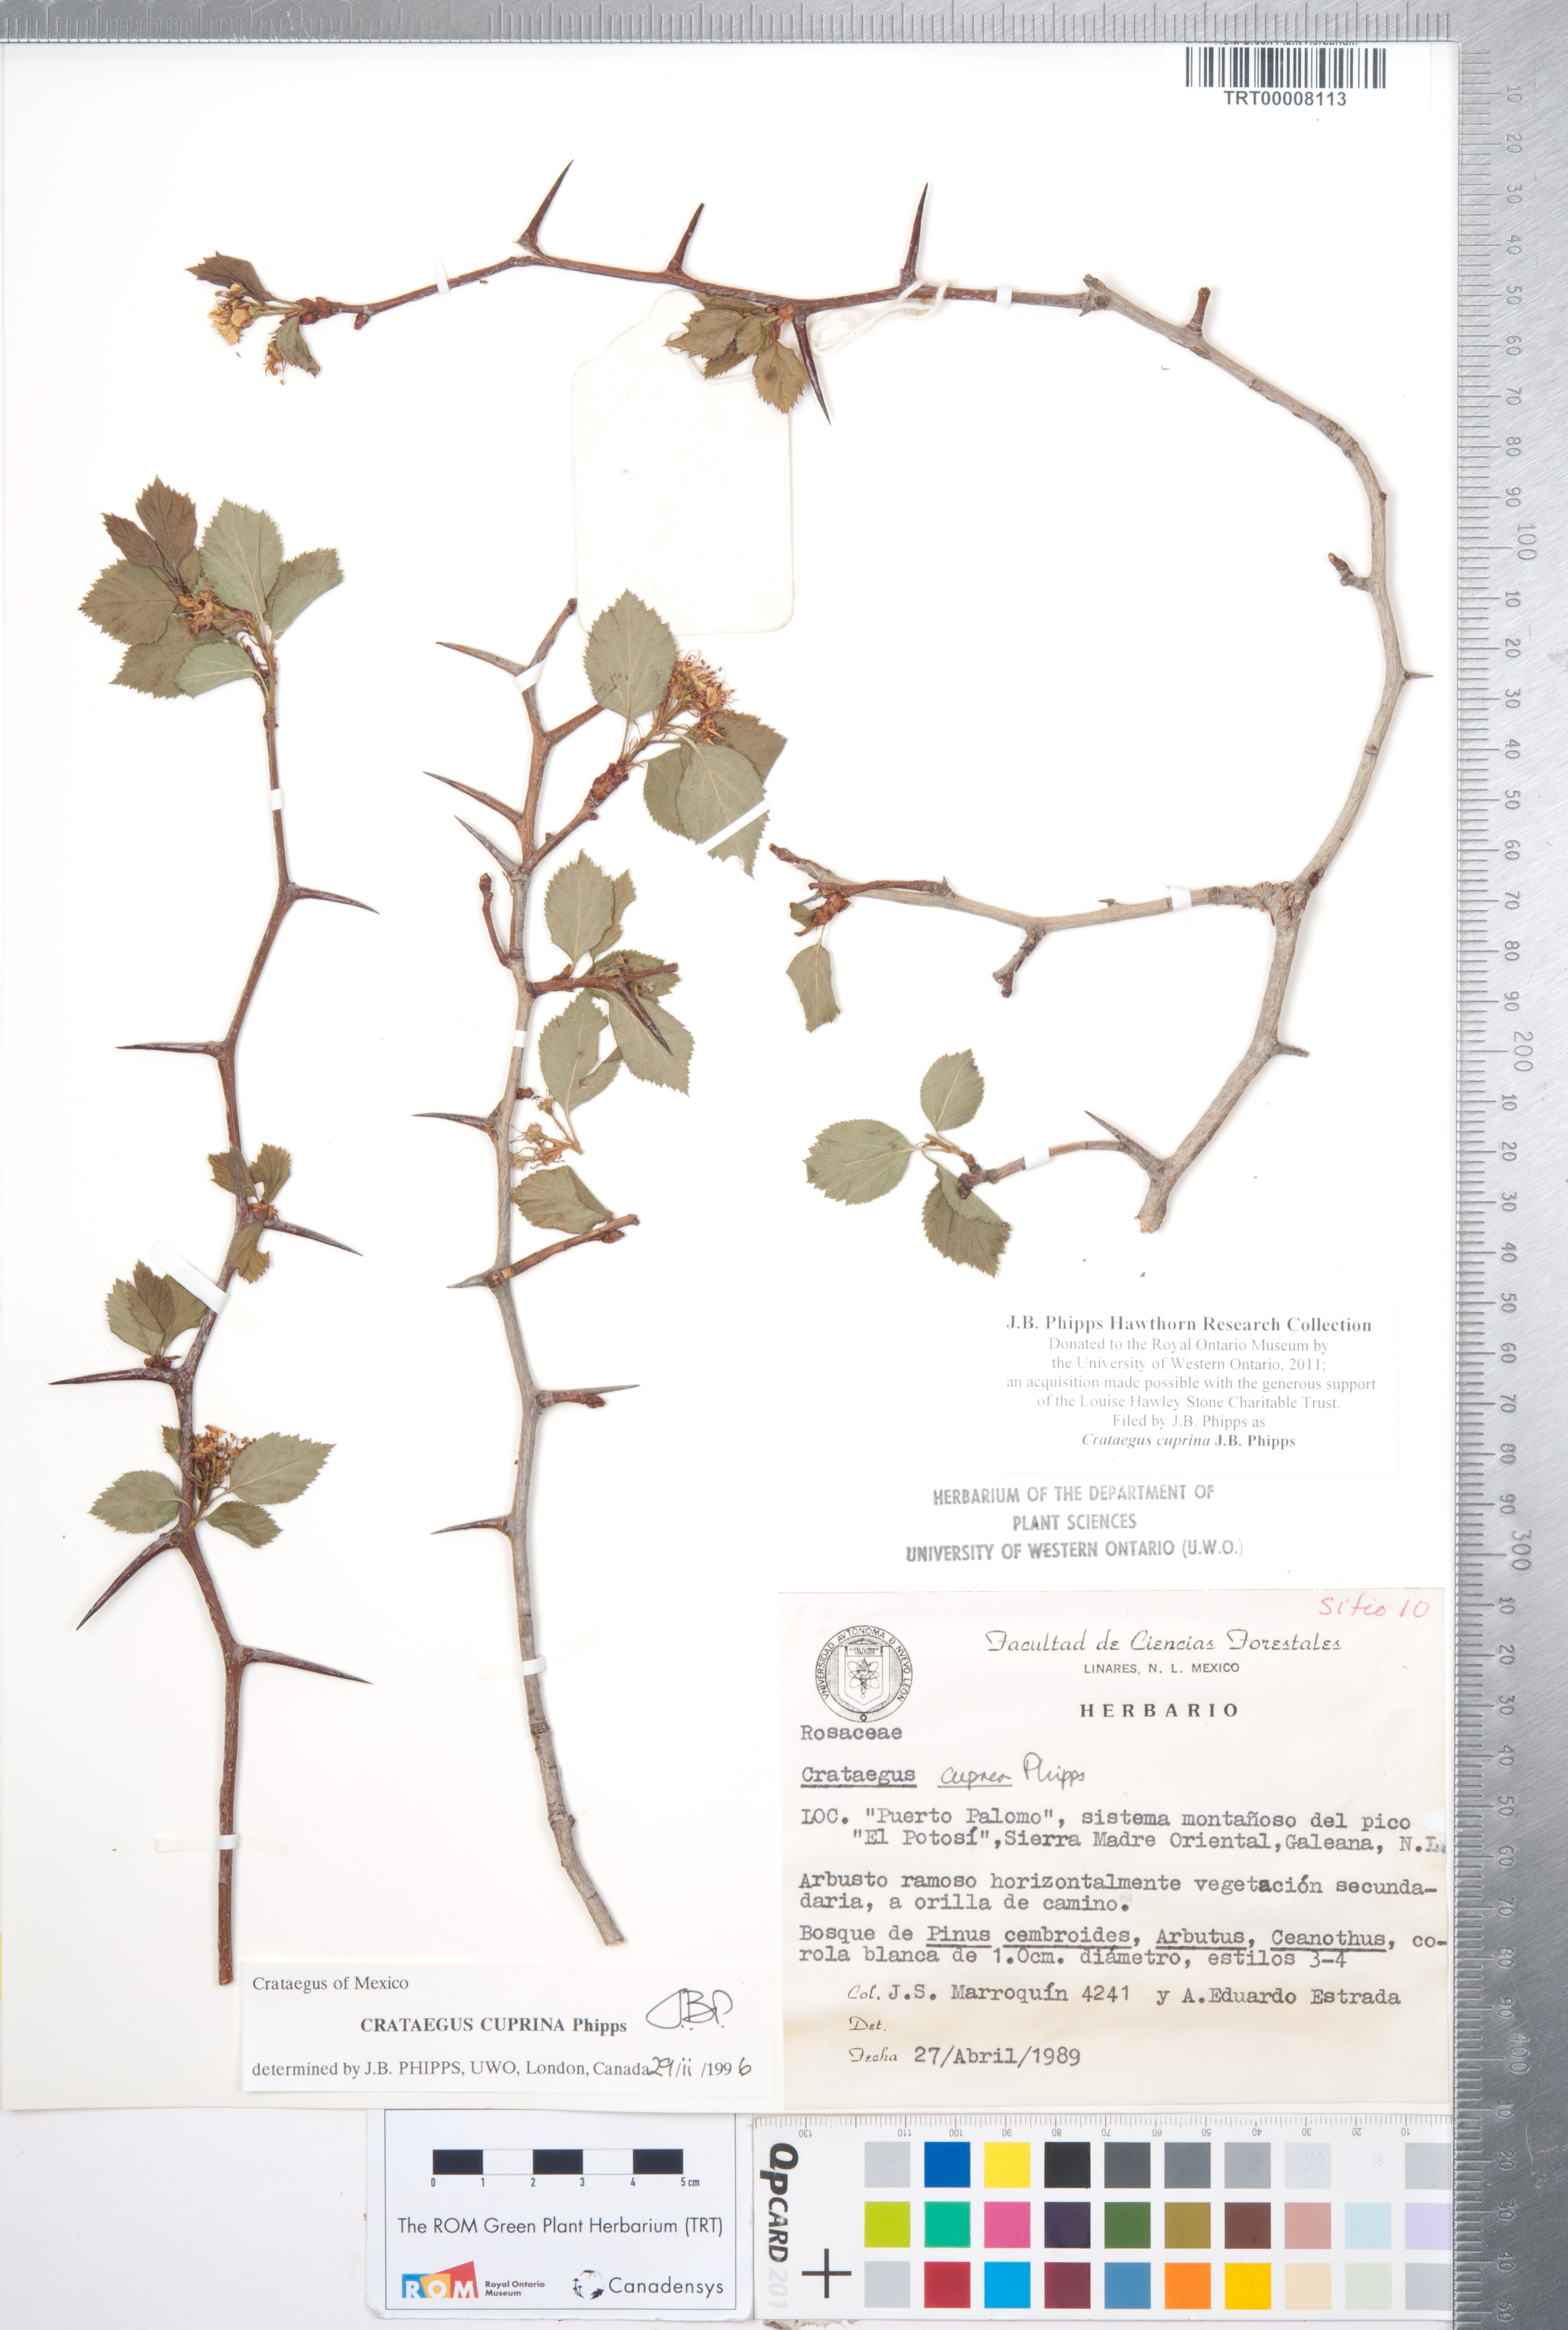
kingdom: Plantae
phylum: Tracheophyta
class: Magnoliopsida
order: Rosales
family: Rosaceae
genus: Crataegus
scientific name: Crataegus cuprina
